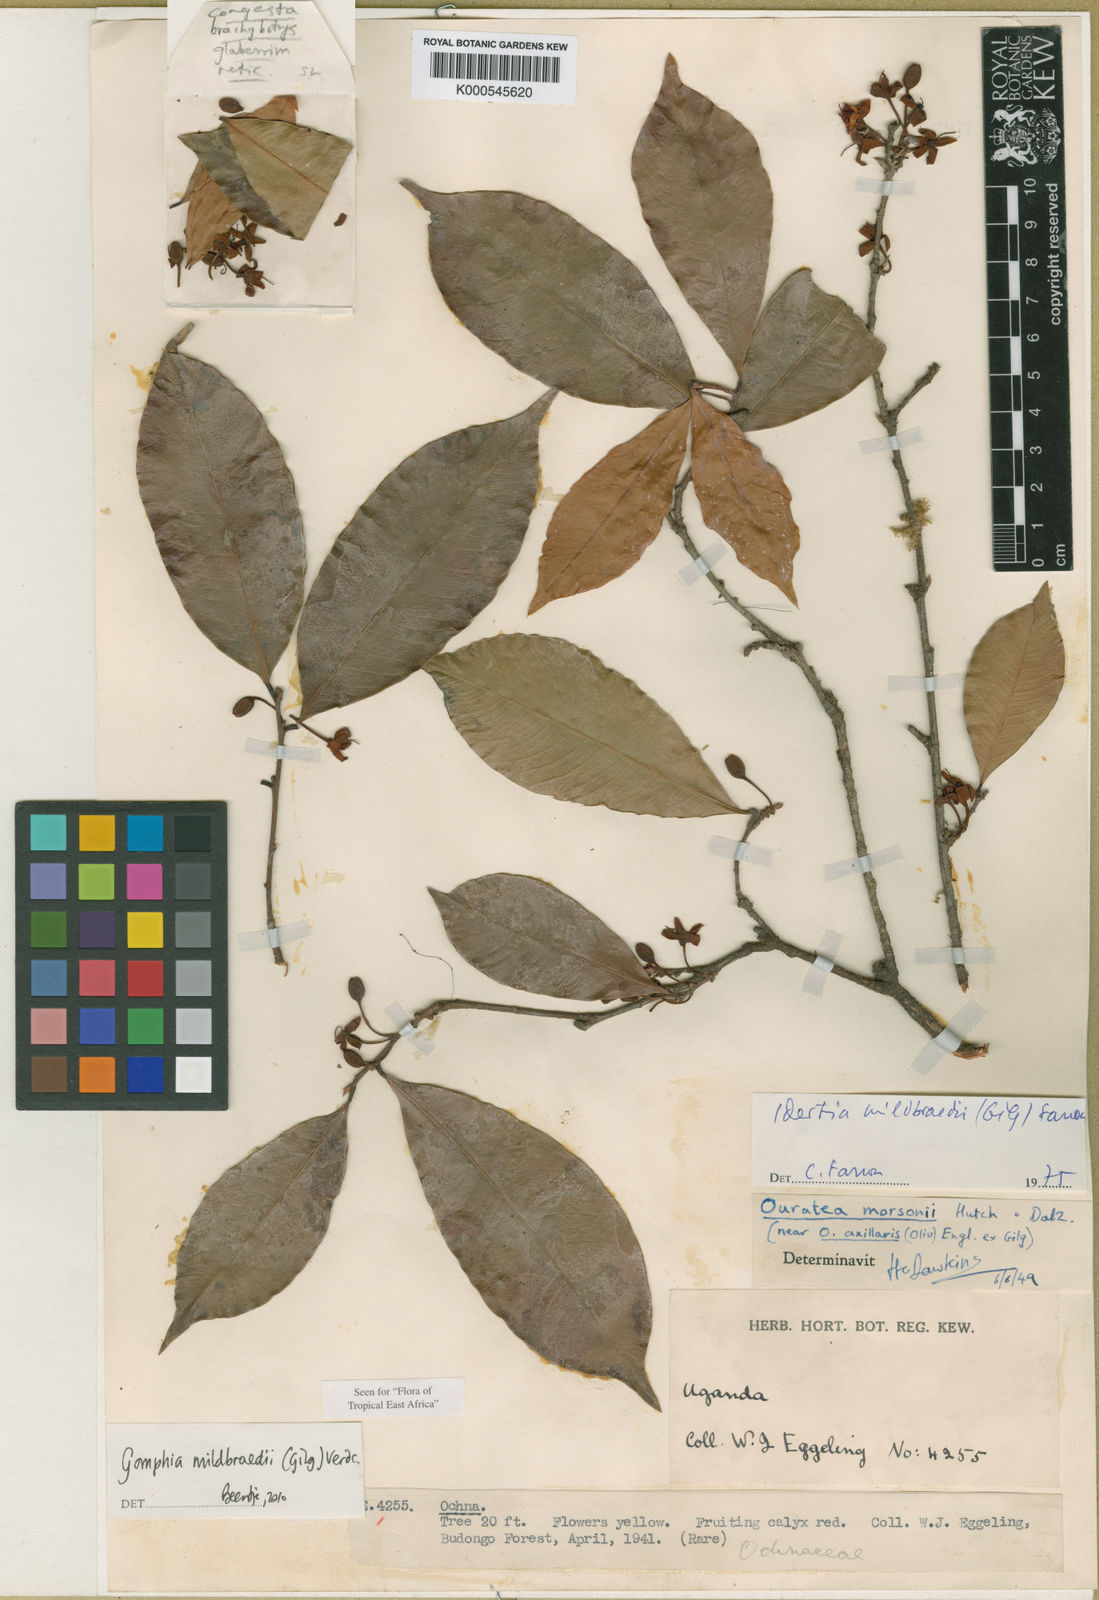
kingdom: Plantae
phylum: Tracheophyta
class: Magnoliopsida
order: Malpighiales
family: Ochnaceae
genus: Idertia
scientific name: Idertia axillaris
